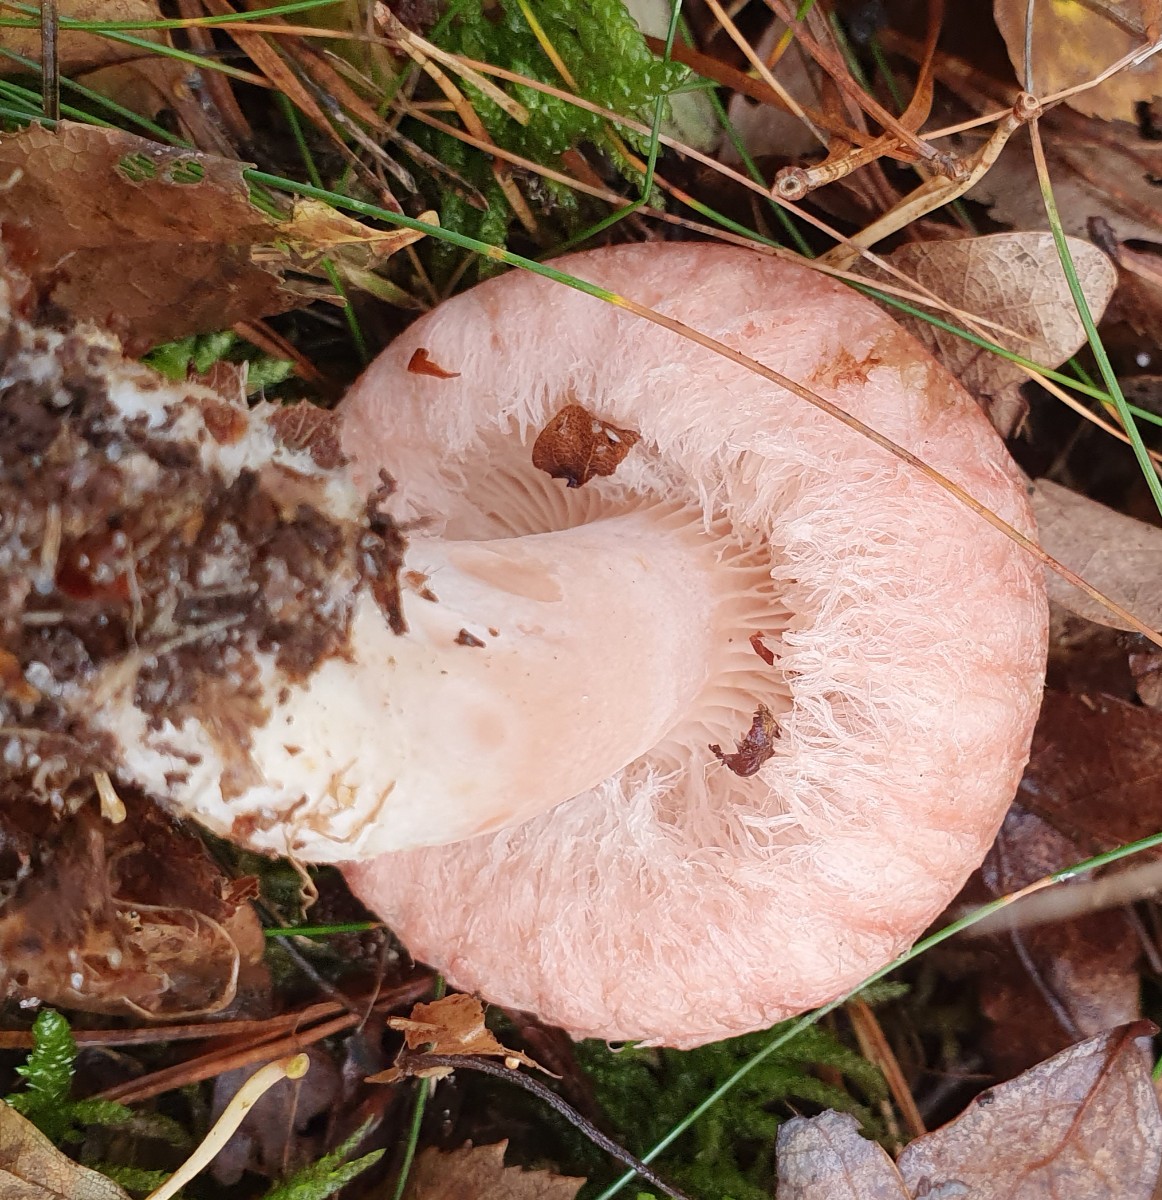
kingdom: Fungi
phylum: Basidiomycota
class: Agaricomycetes
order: Russulales
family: Russulaceae
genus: Lactarius
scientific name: Lactarius torminosus
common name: skægget mælkehat
